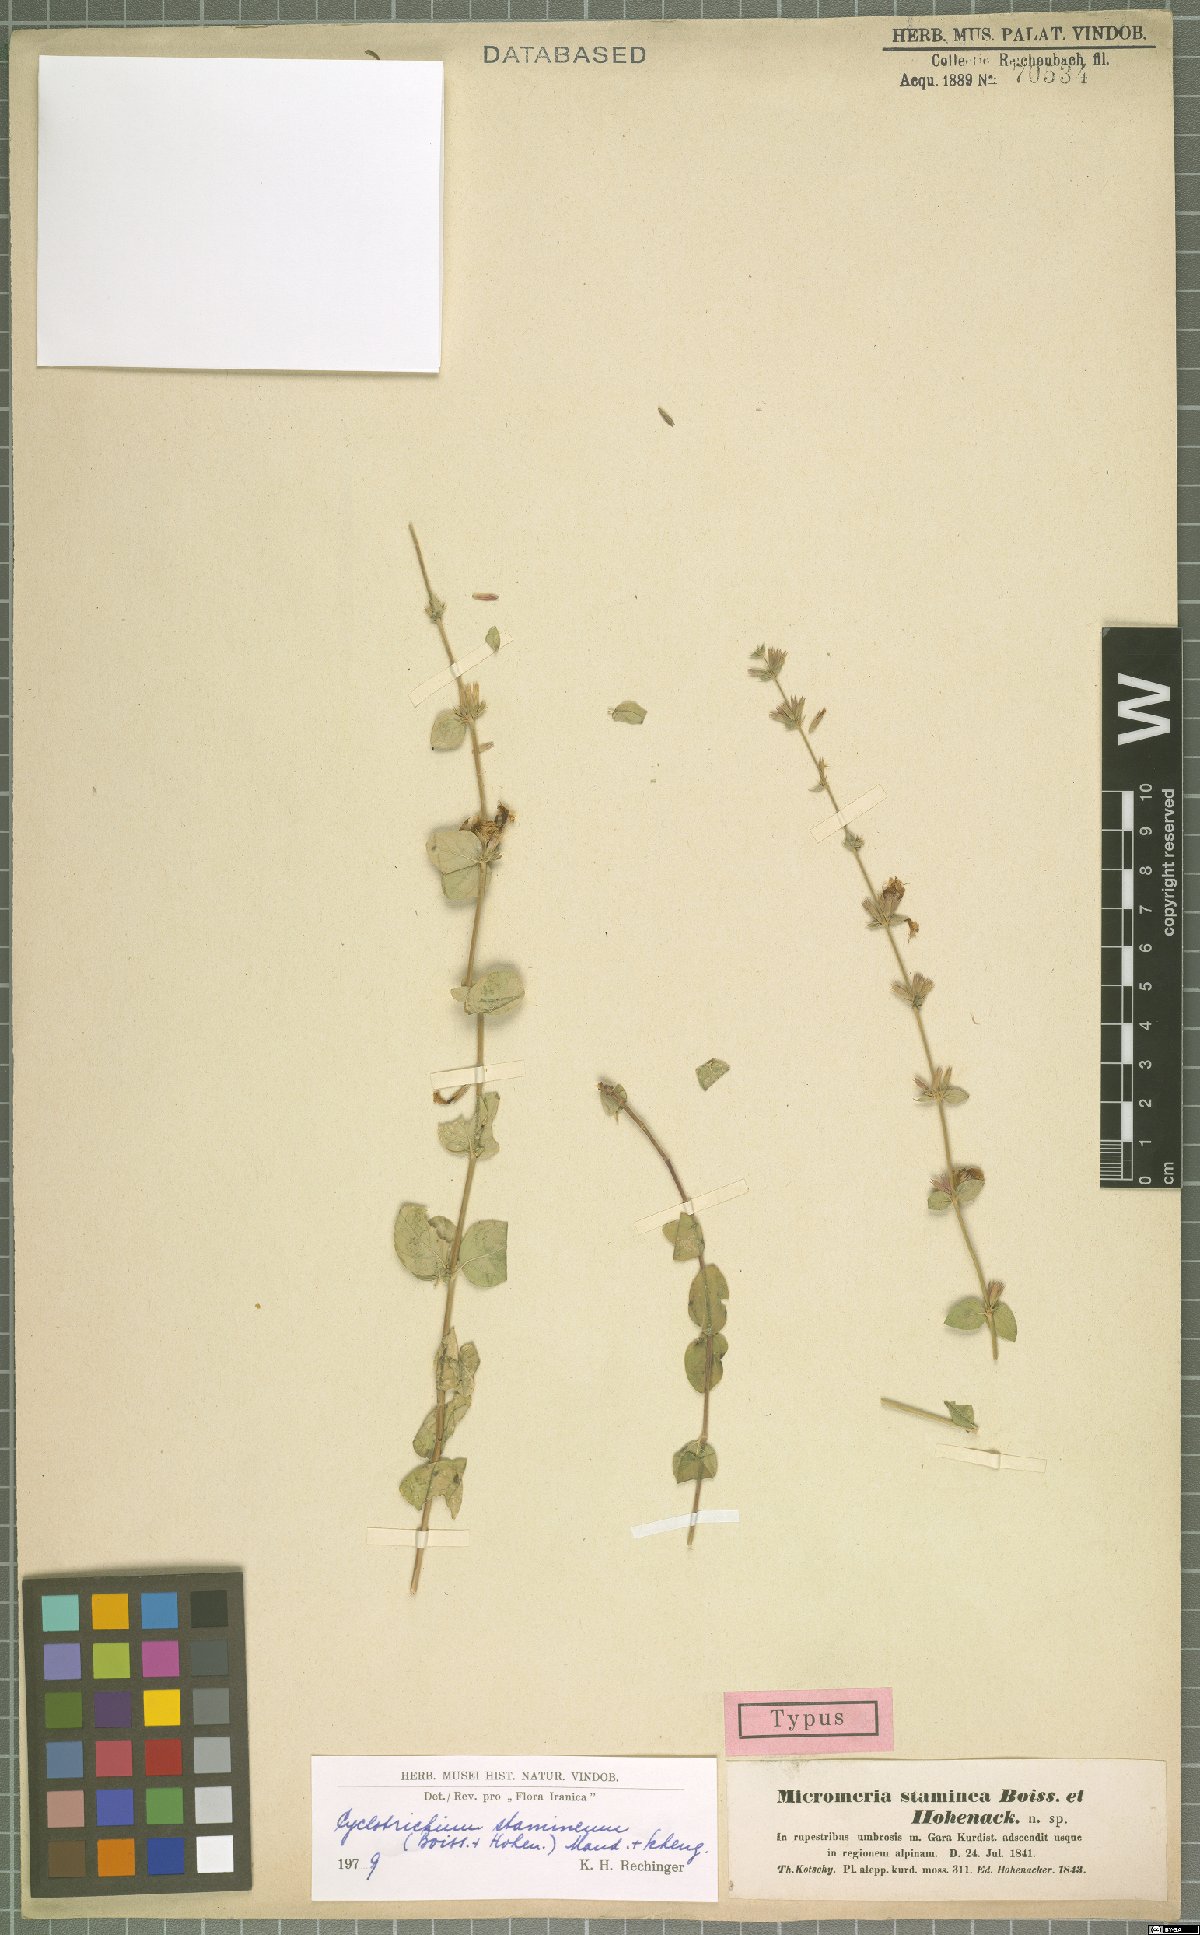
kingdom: Plantae
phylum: Tracheophyta
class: Magnoliopsida
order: Lamiales
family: Lamiaceae
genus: Cyclotrichium
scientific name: Cyclotrichium stamineum
